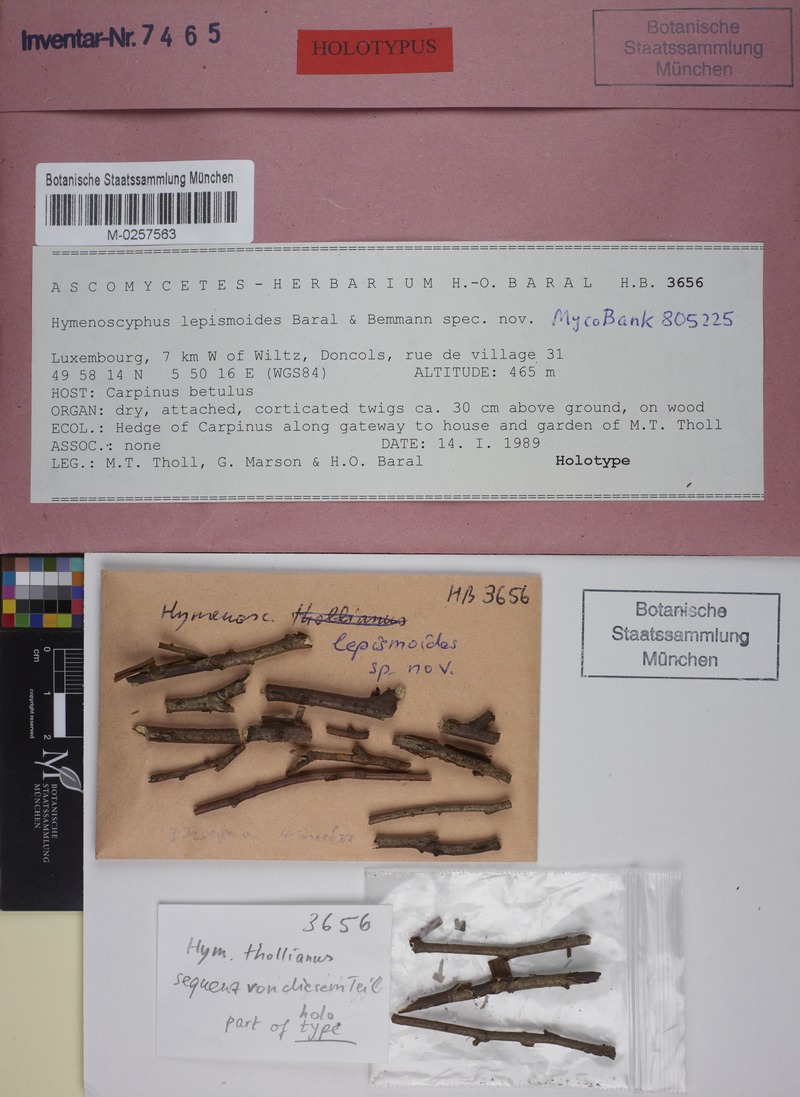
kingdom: Fungi
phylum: Ascomycota
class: Leotiomycetes
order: Helotiales
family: Helotiaceae
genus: Hymenoscyphus
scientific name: Hymenoscyphus lepismoides
